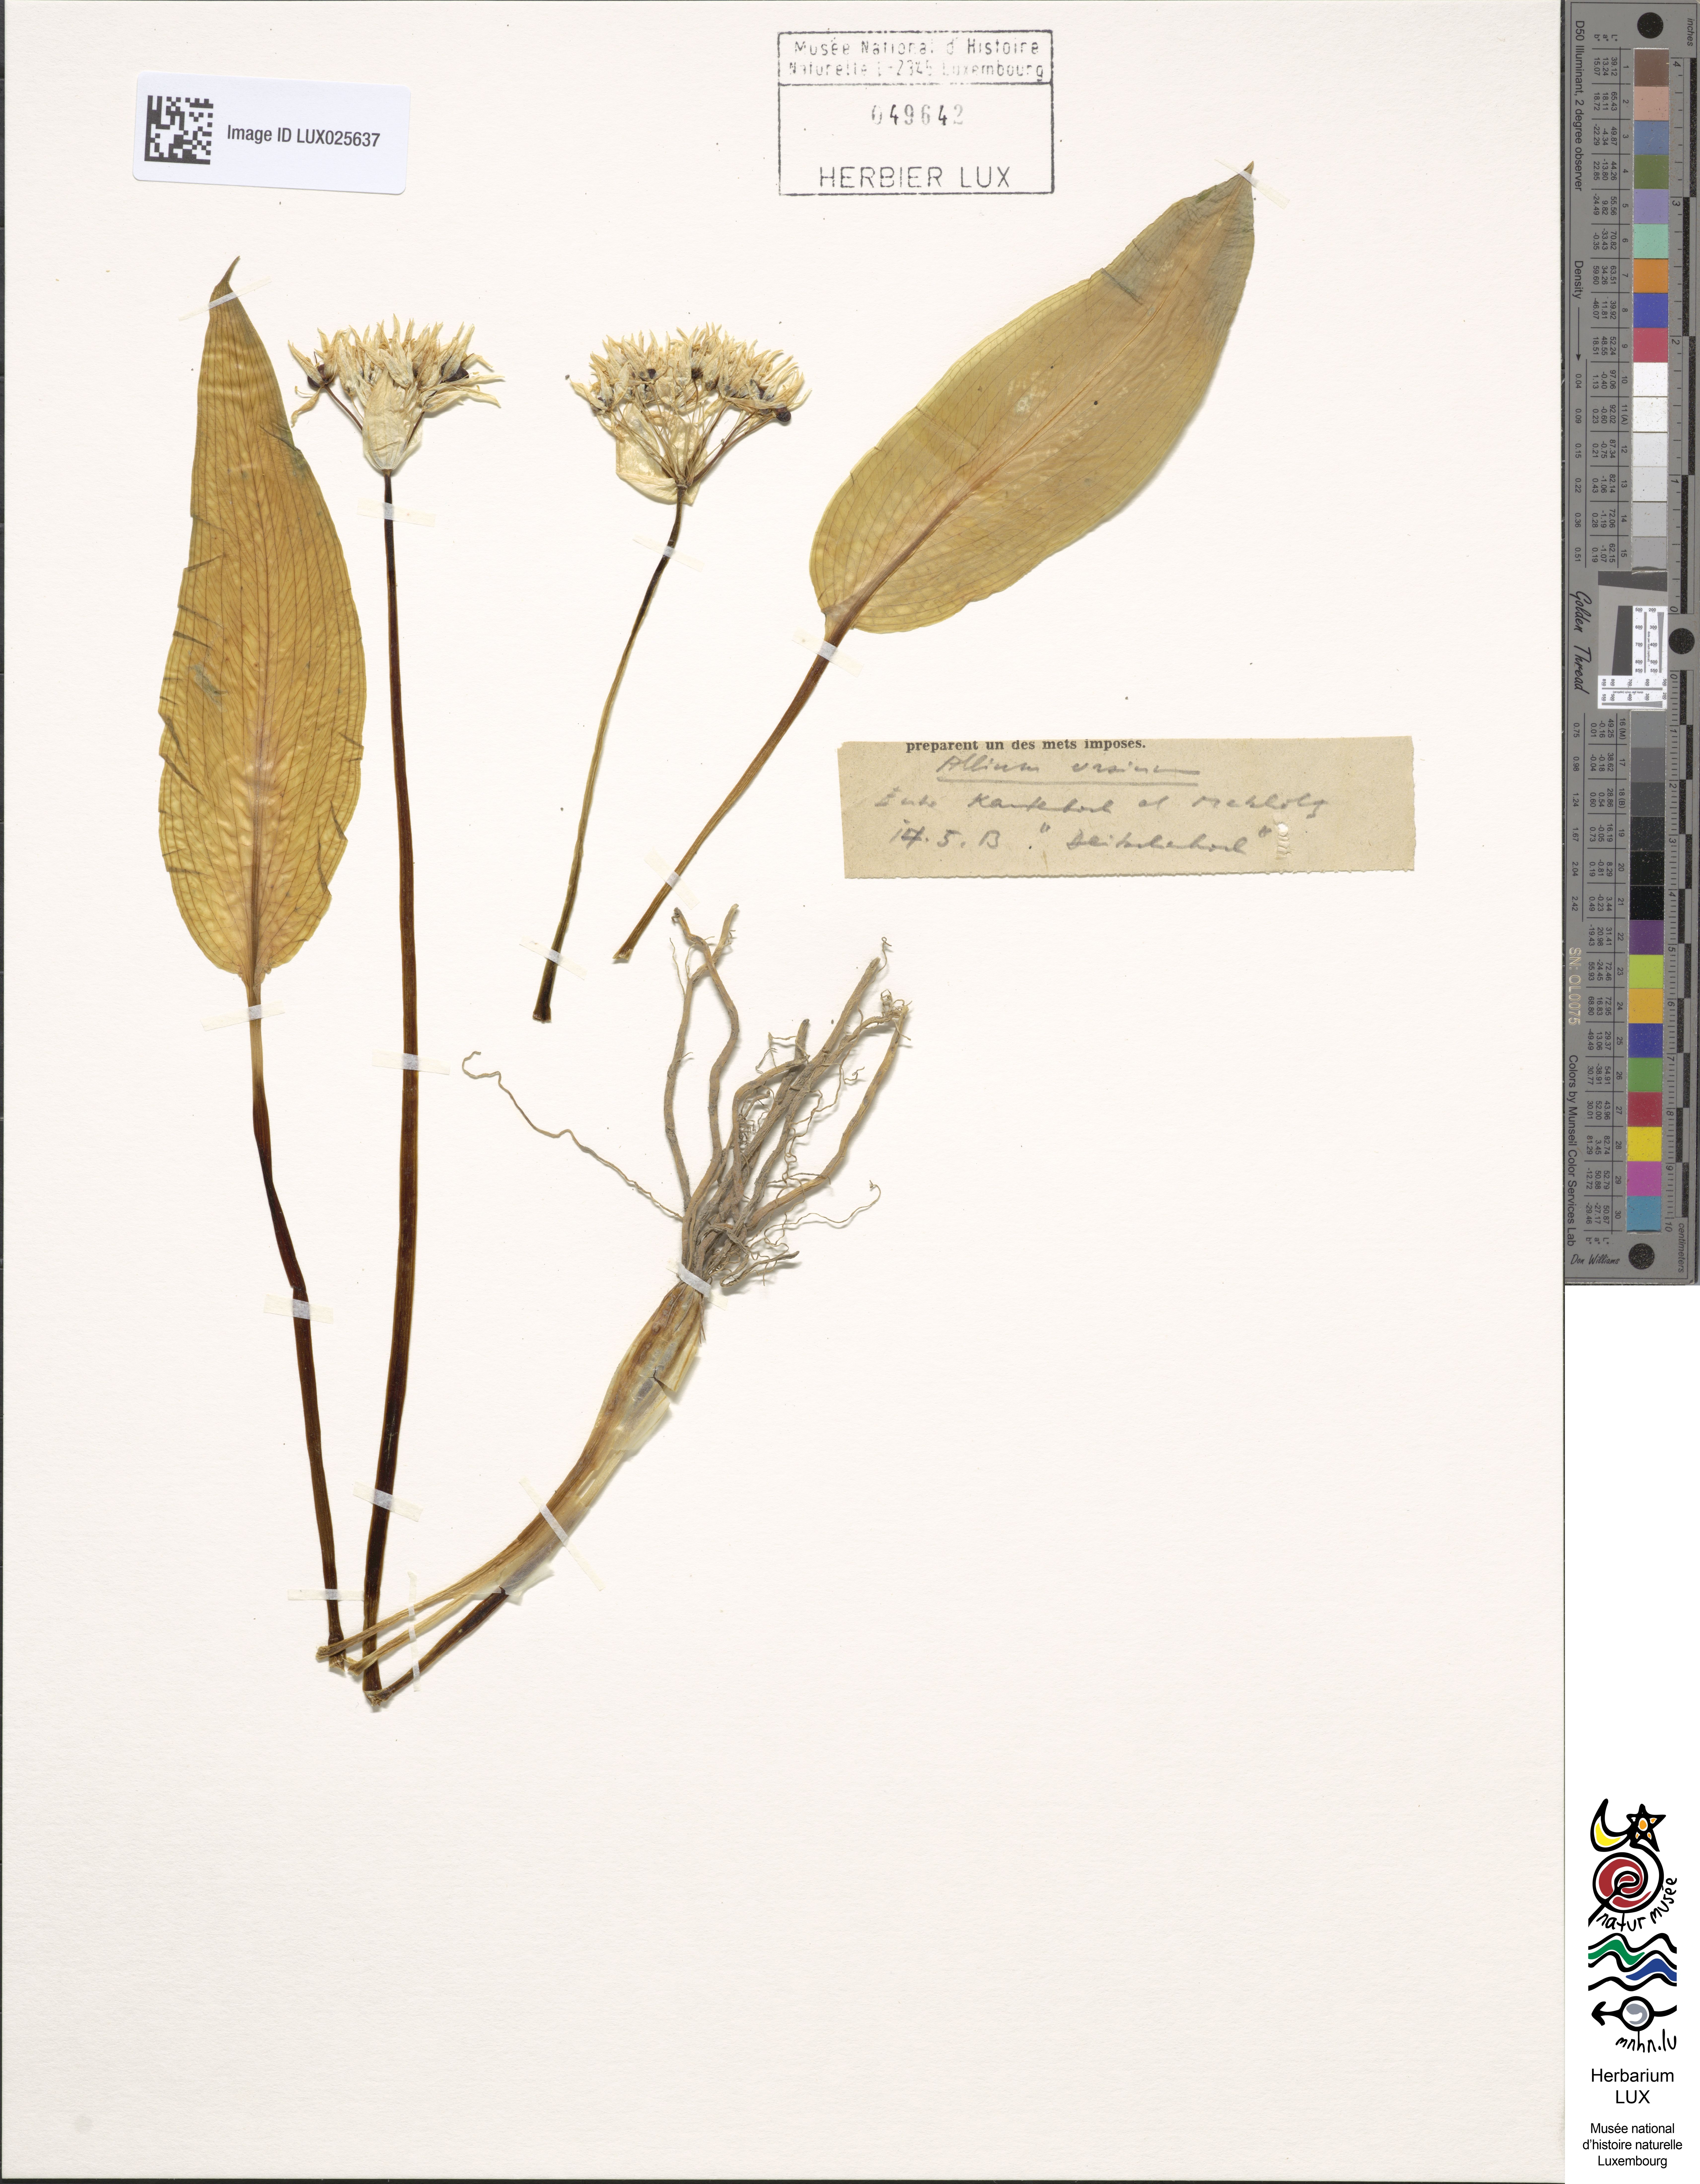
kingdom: Plantae
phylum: Tracheophyta
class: Liliopsida
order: Asparagales
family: Amaryllidaceae
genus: Allium
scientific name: Allium ursinum
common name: Ramsons
